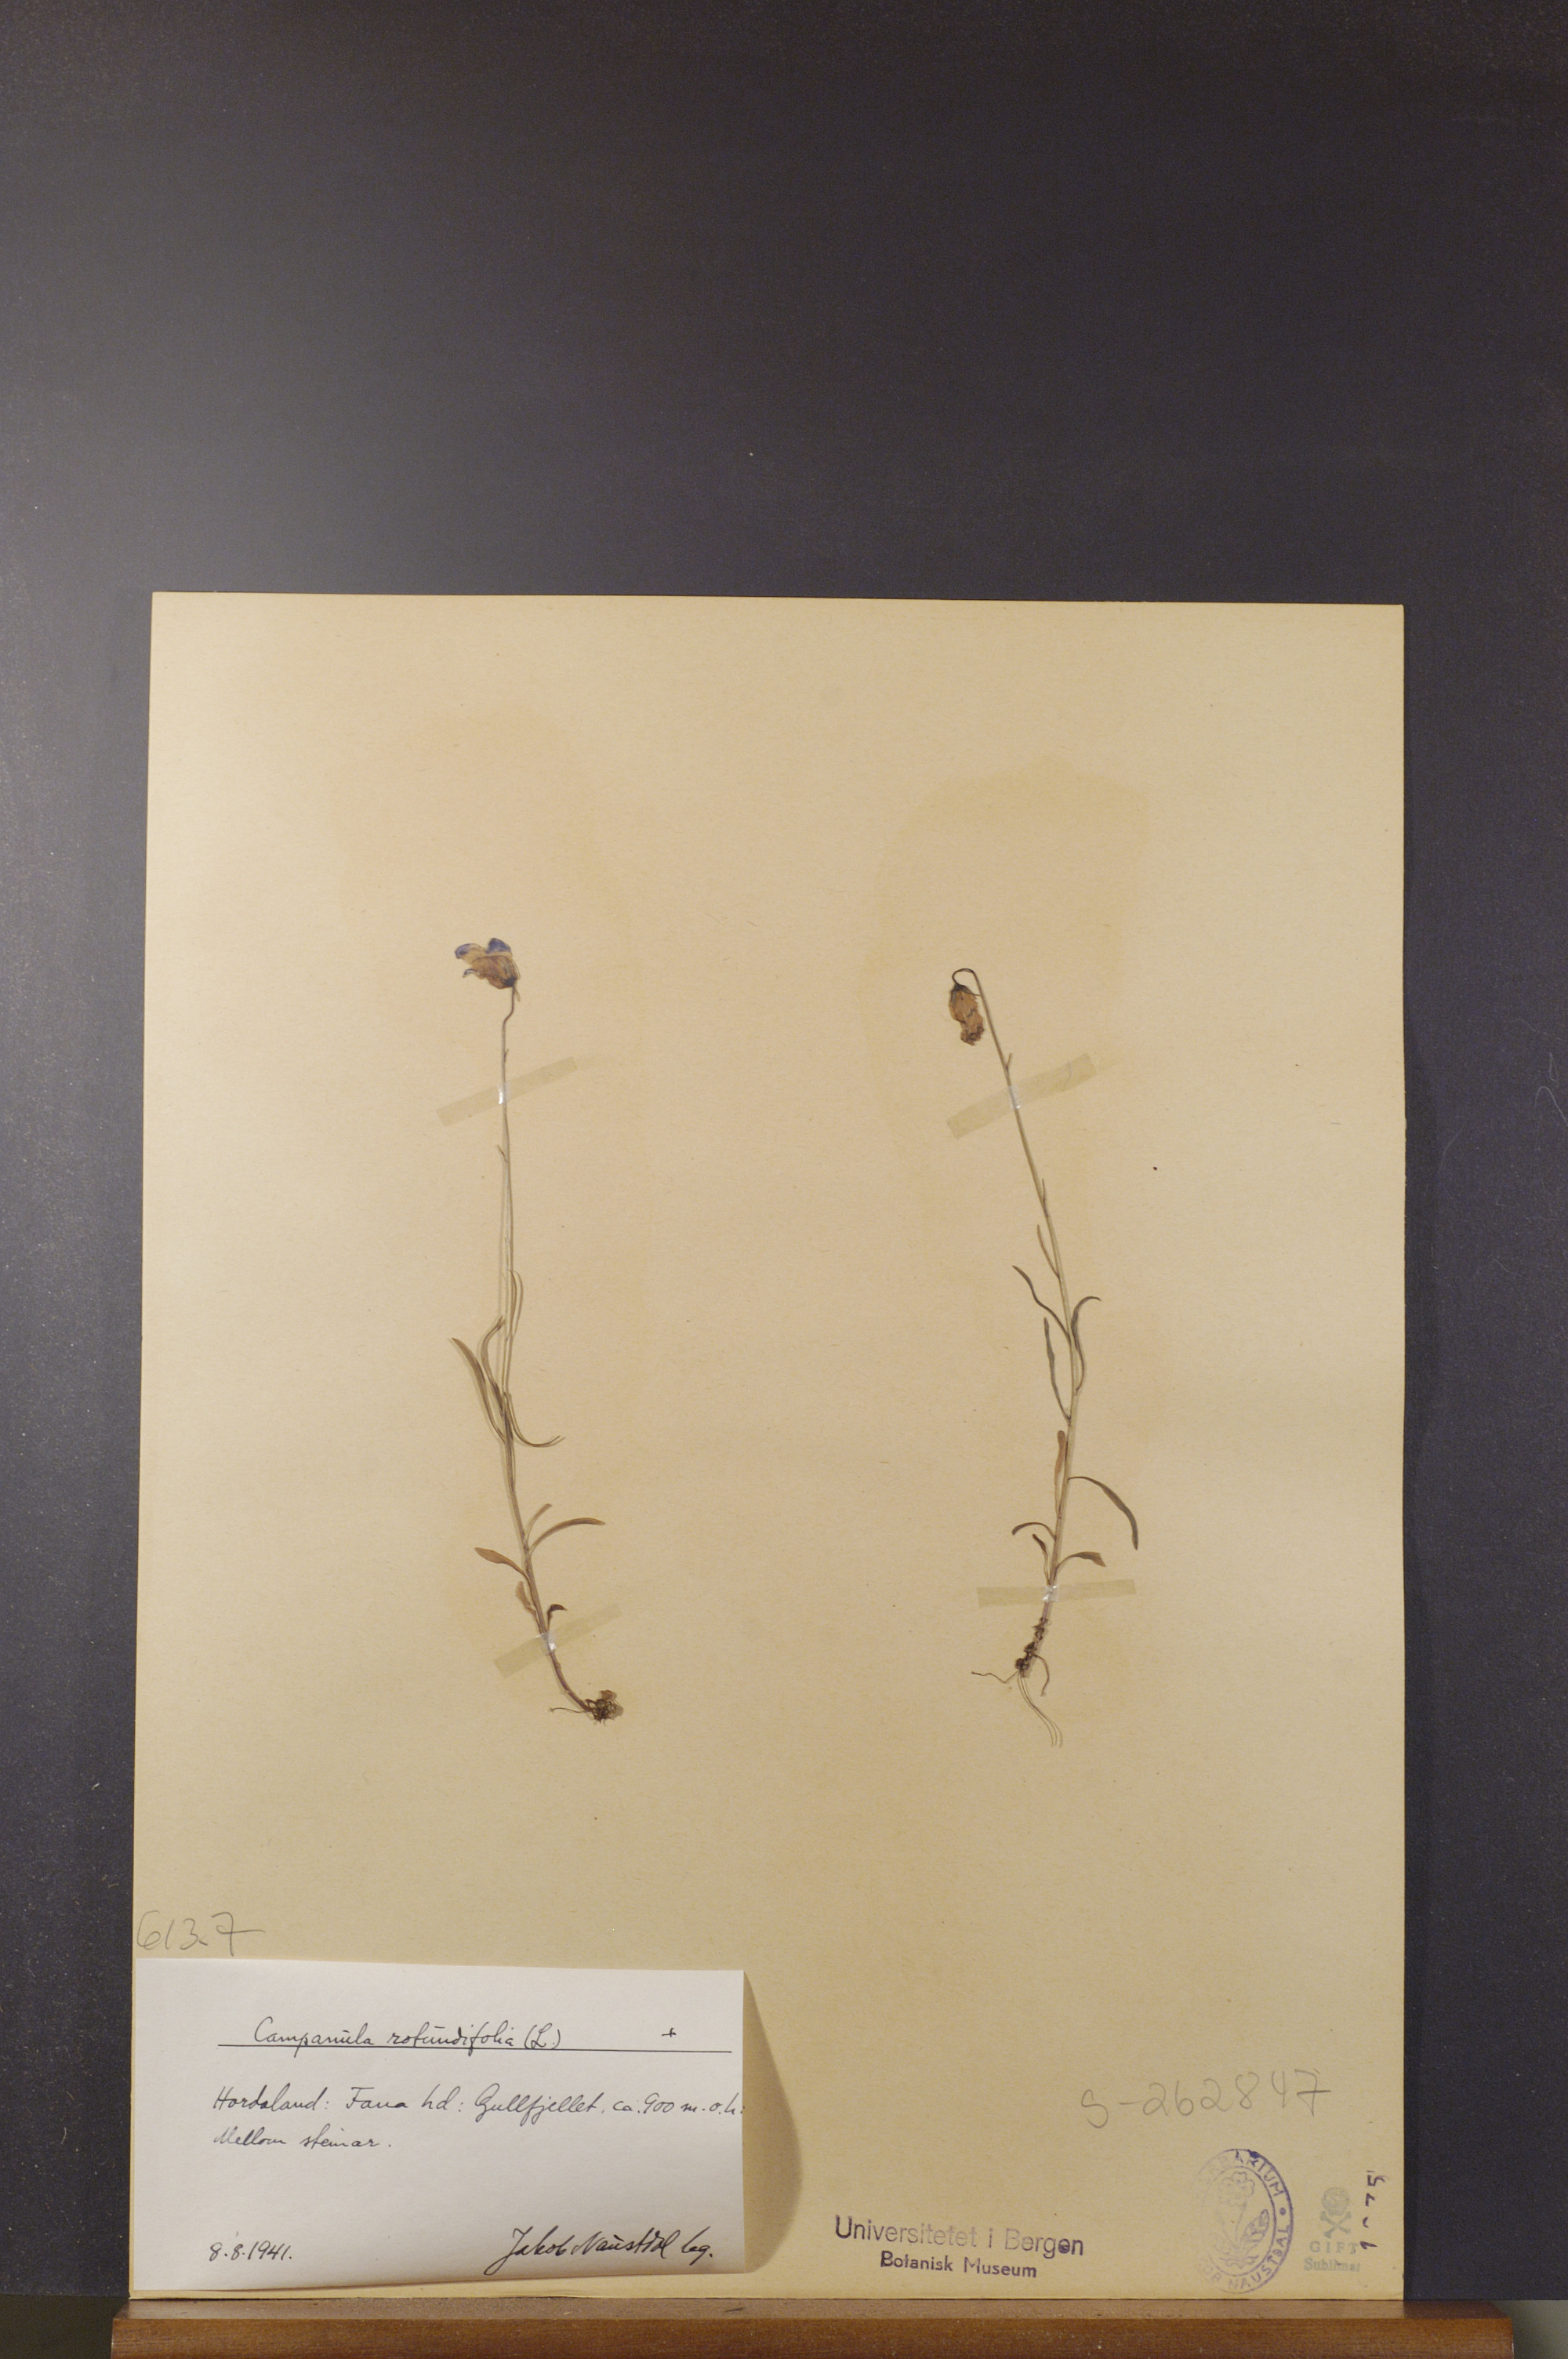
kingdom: Plantae
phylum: Tracheophyta
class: Magnoliopsida
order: Asterales
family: Campanulaceae
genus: Campanula
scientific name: Campanula rotundifolia
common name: Harebell
